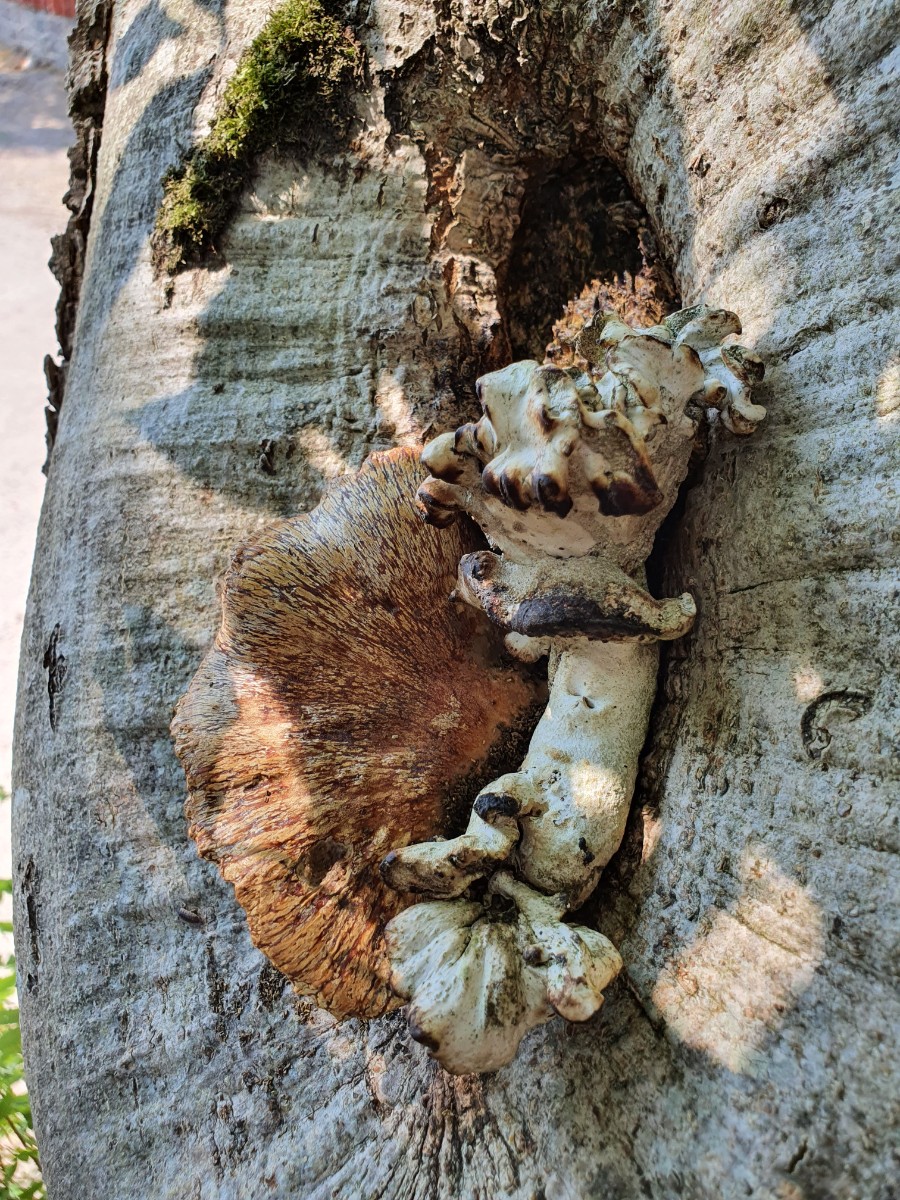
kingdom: Fungi
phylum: Basidiomycota
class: Agaricomycetes
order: Polyporales
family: Polyporaceae
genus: Cerioporus
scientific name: Cerioporus varius
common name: foranderlig stilkporesvamp
